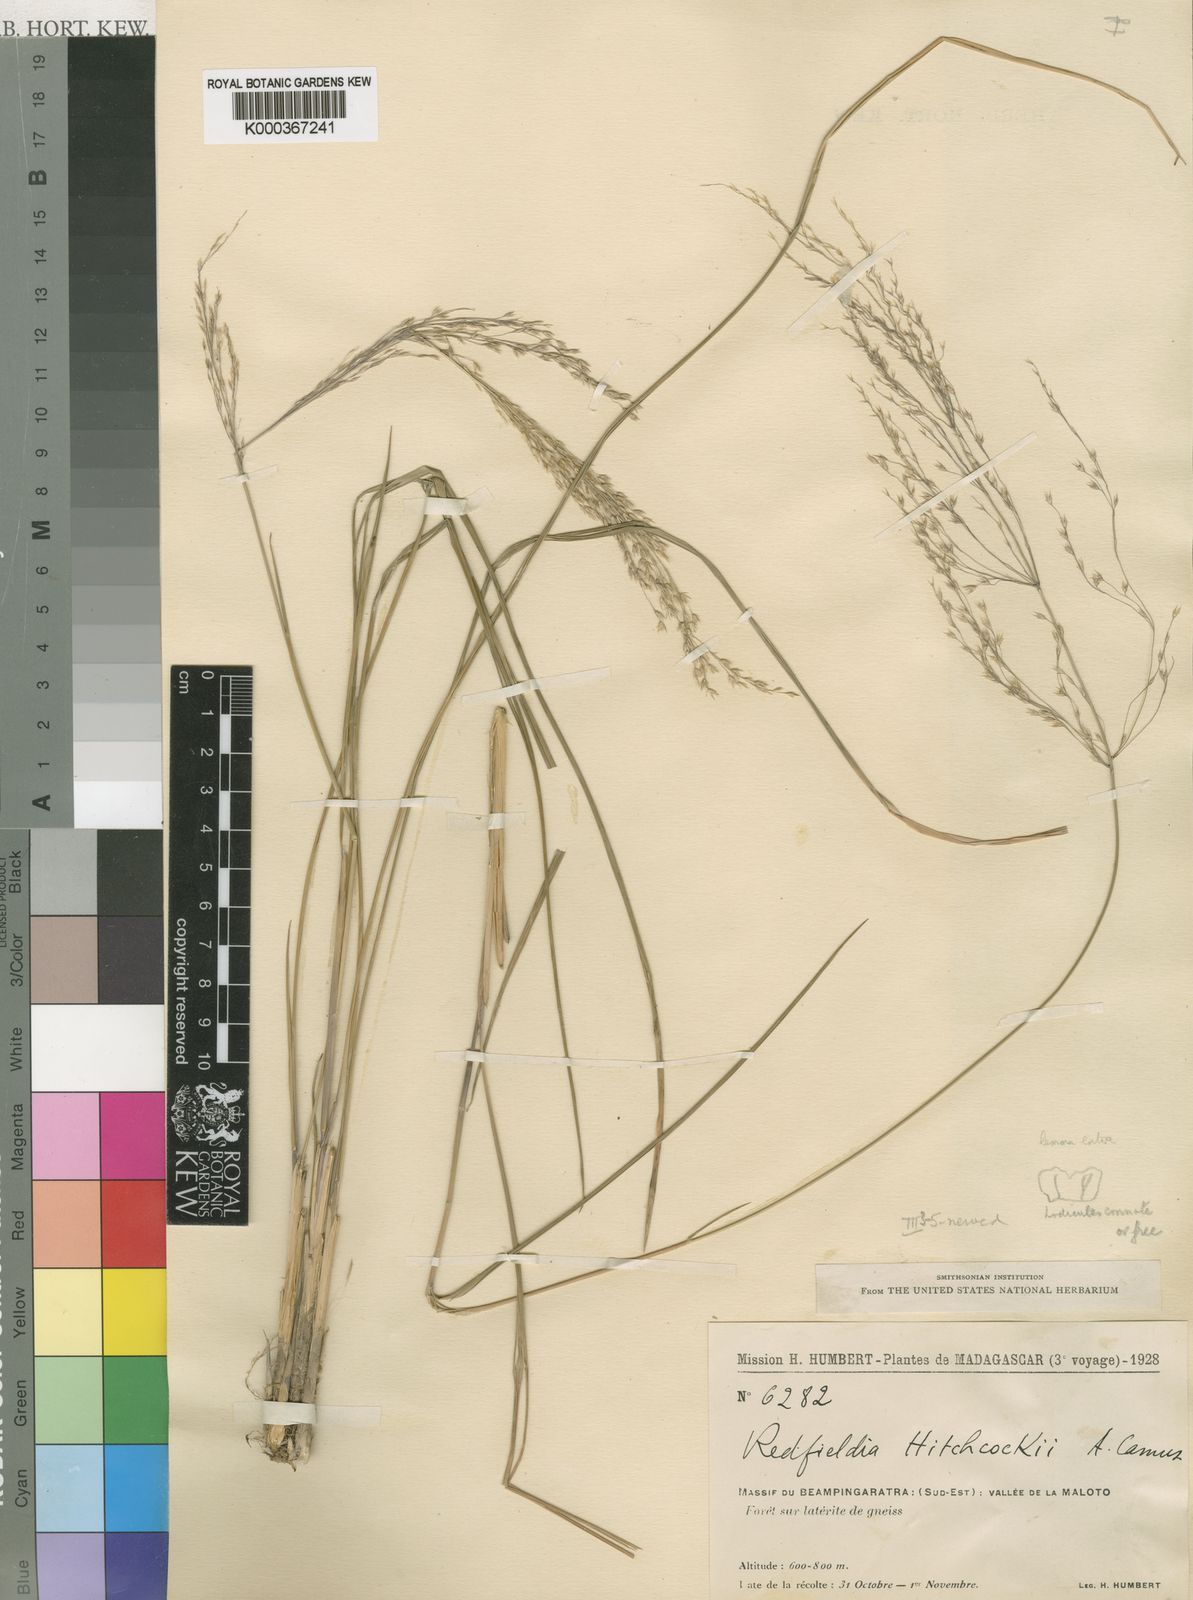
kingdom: Plantae
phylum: Tracheophyta
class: Liliopsida
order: Poales
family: Poaceae
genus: Styppeiochloa
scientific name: Styppeiochloa hitchcockii
